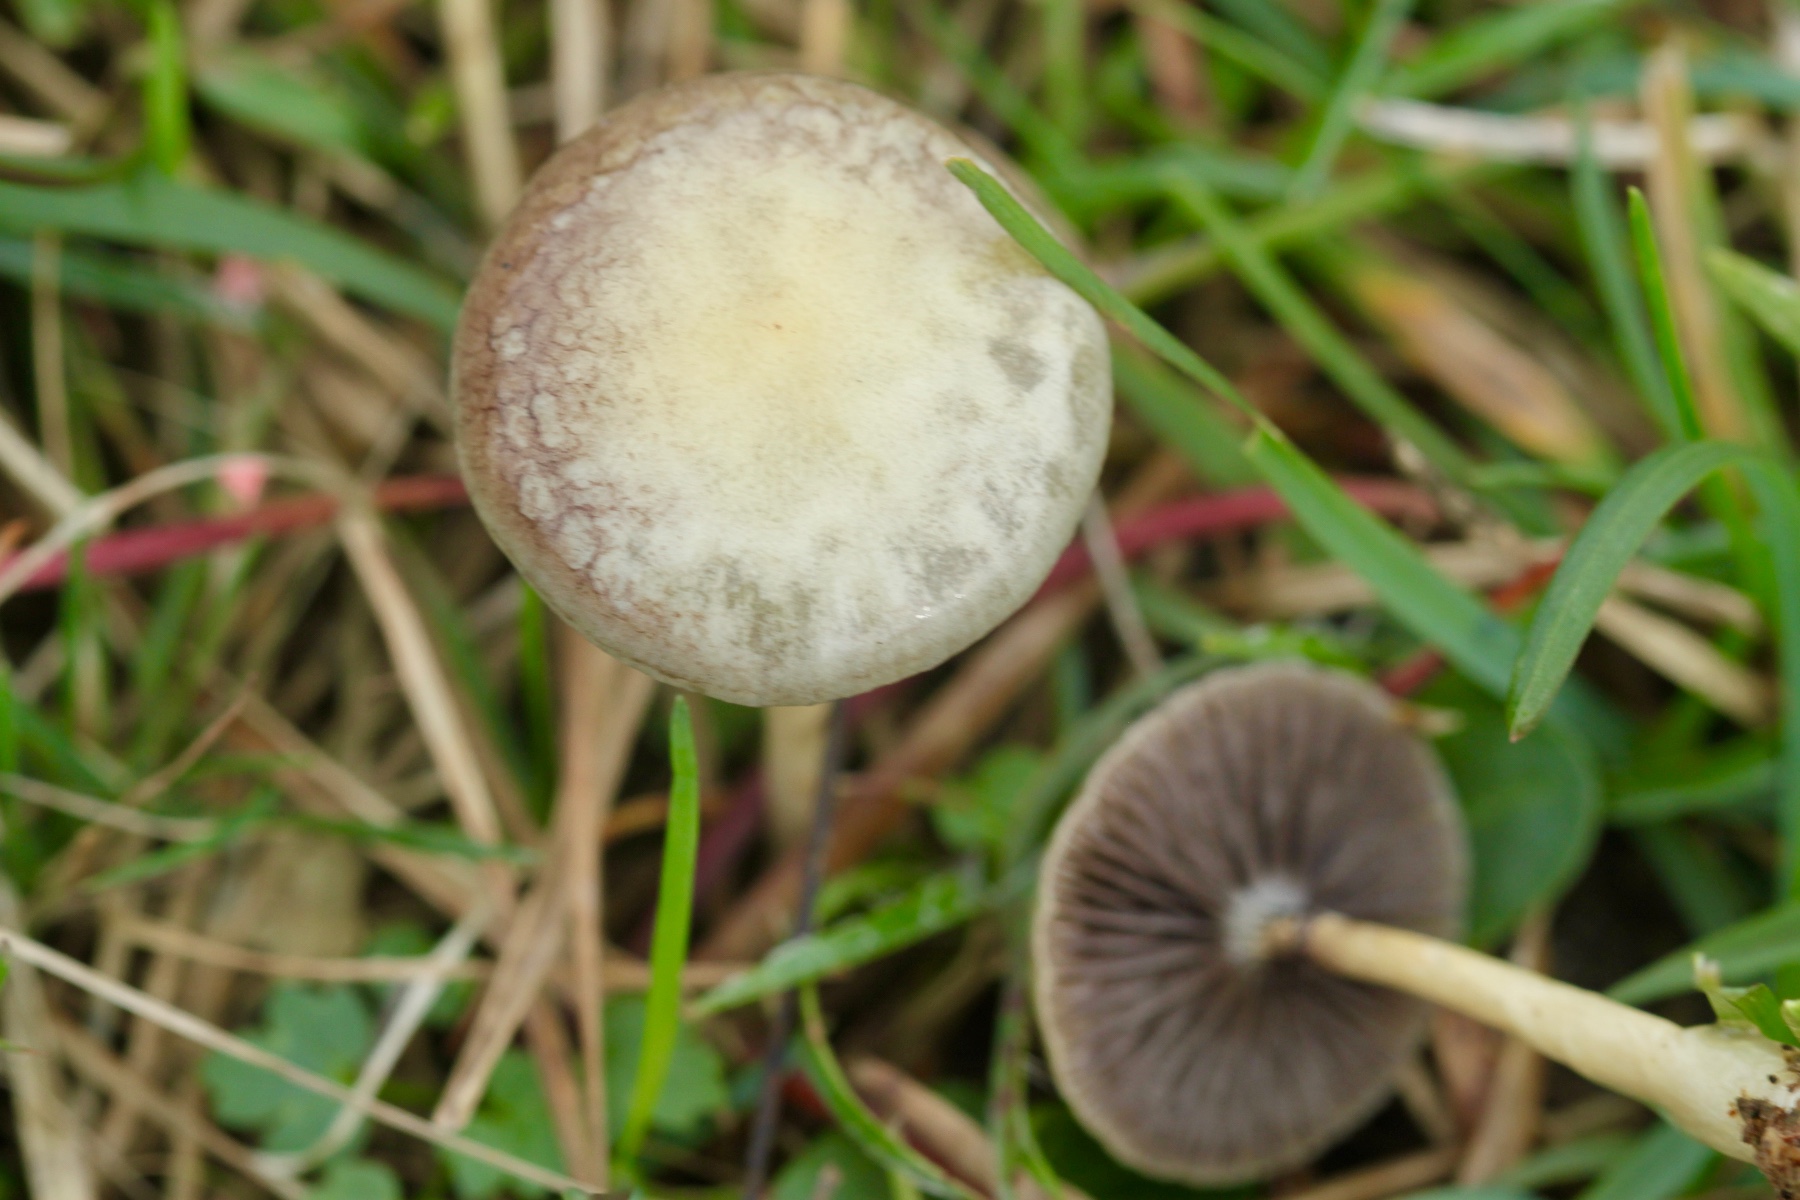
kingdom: Fungi
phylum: Basidiomycota
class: Agaricomycetes
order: Agaricales
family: Strophariaceae
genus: Protostropharia
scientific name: Protostropharia semiglobata
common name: halvkugleformet bredblad
